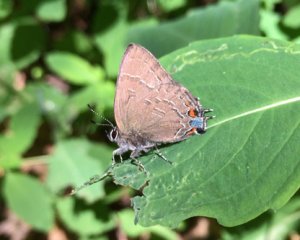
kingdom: Animalia
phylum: Arthropoda
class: Insecta
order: Lepidoptera
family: Lycaenidae
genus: Satyrium
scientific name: Satyrium calanus
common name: Banded Hairstreak
